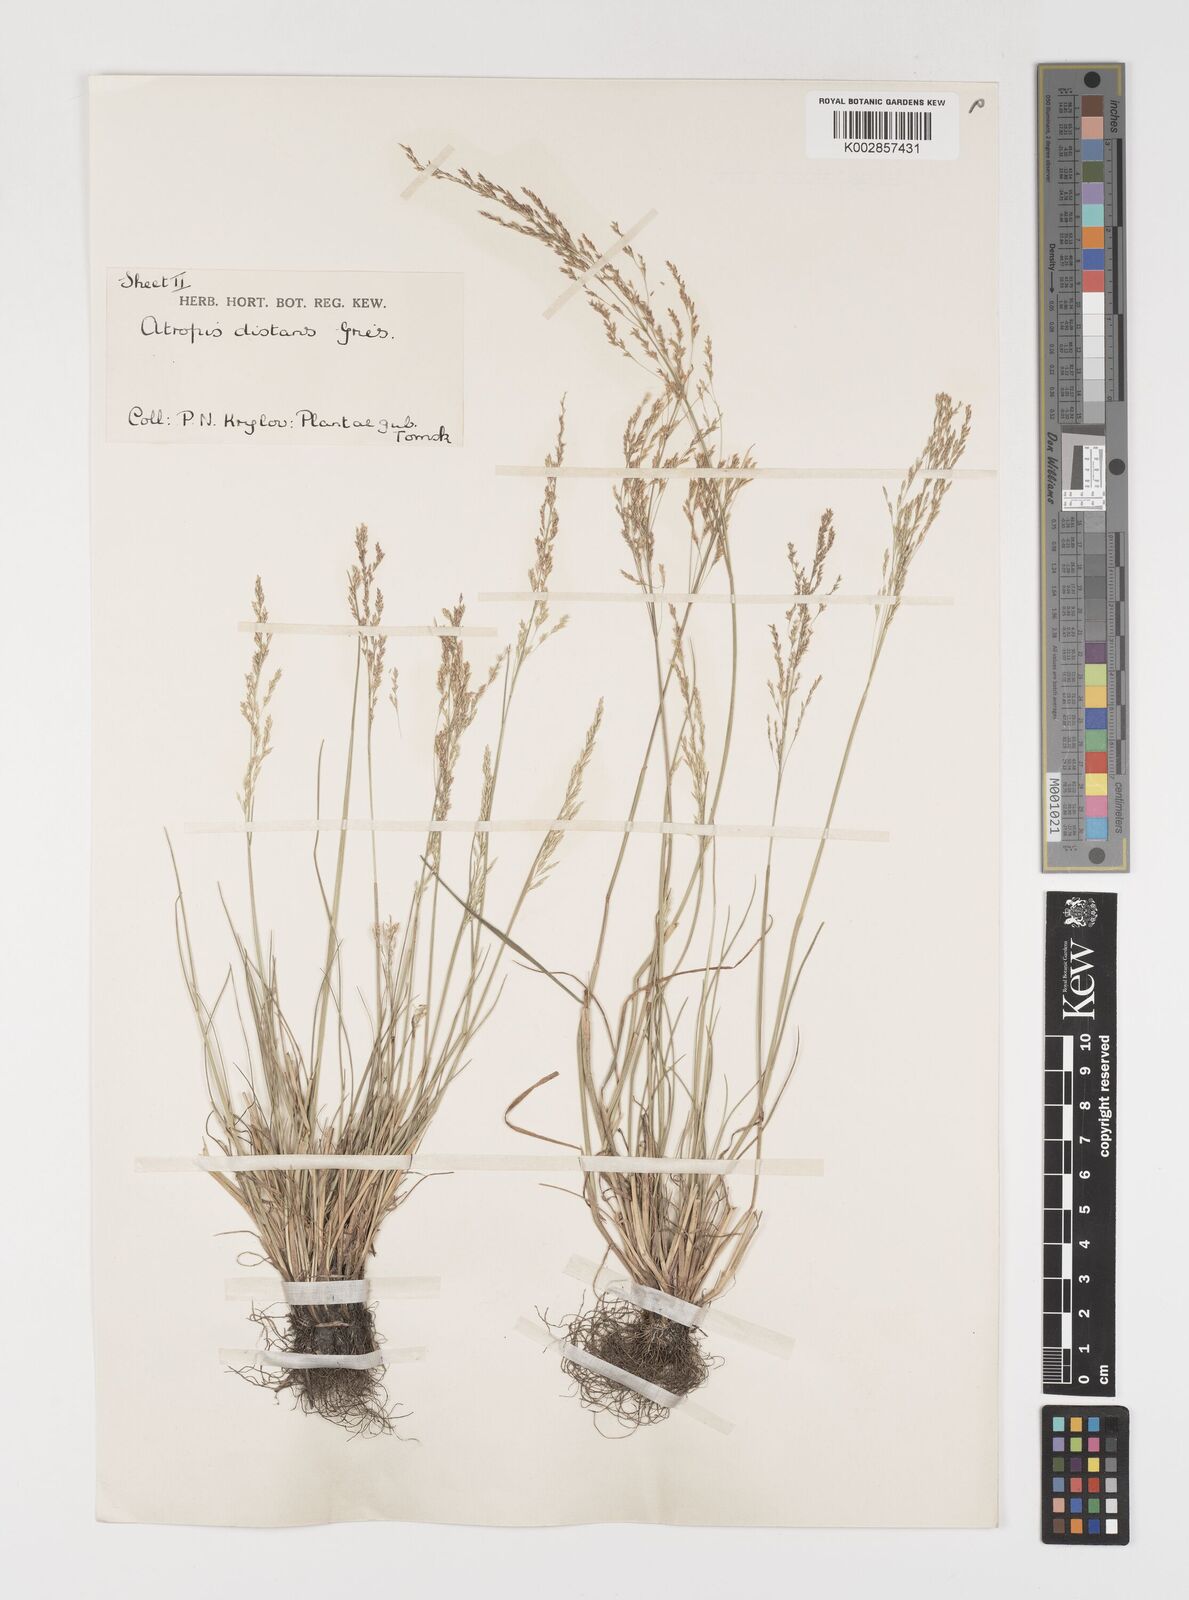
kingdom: Plantae
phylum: Tracheophyta
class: Liliopsida
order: Poales
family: Poaceae
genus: Puccinellia
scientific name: Puccinellia distans
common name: Weeping alkaligrass
